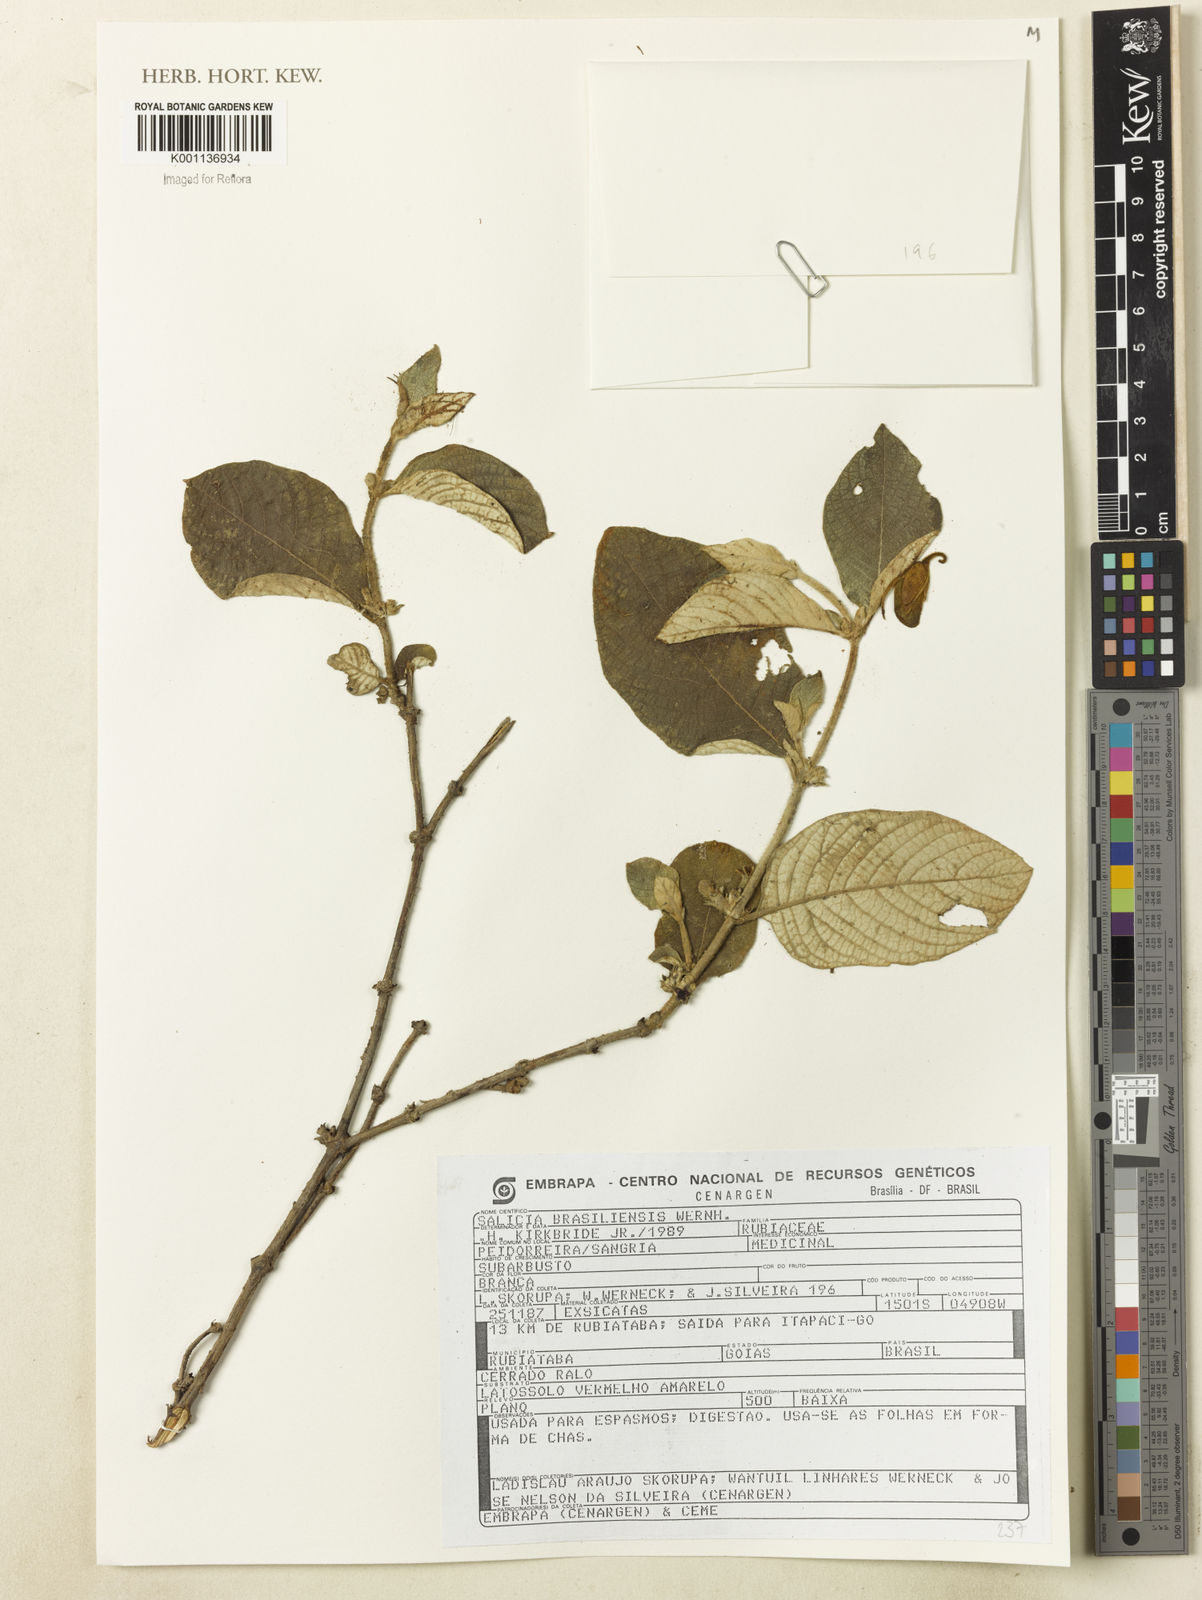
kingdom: Plantae
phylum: Tracheophyta
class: Magnoliopsida
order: Gentianales
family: Rubiaceae
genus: Sabicea
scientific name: Sabicea brasiliensis
